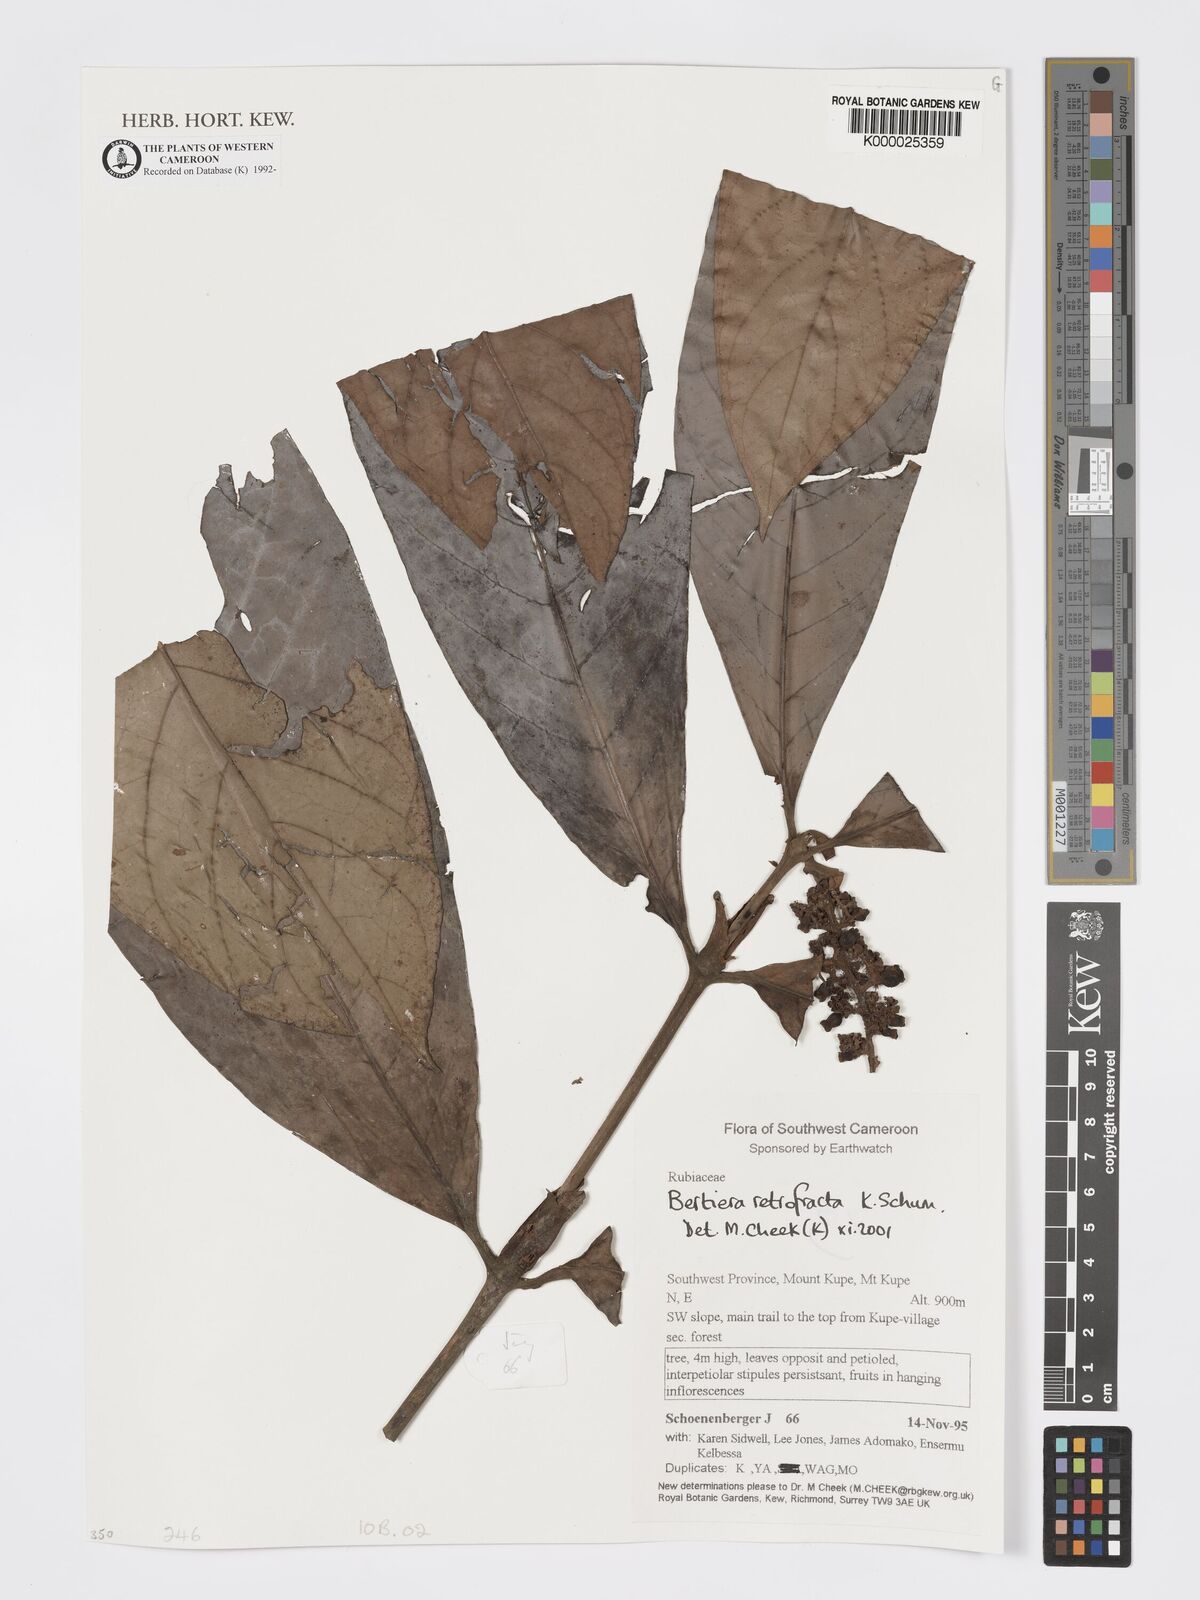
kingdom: Plantae
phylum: Tracheophyta
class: Magnoliopsida
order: Gentianales
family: Rubiaceae
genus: Bertiera
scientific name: Bertiera retrofracta
